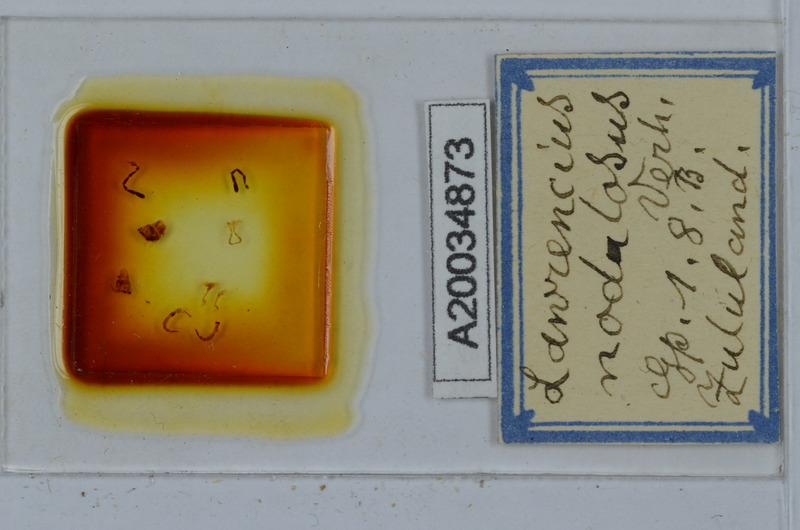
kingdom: Animalia
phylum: Chordata
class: Aves
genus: Lawrencius
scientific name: Lawrencius
